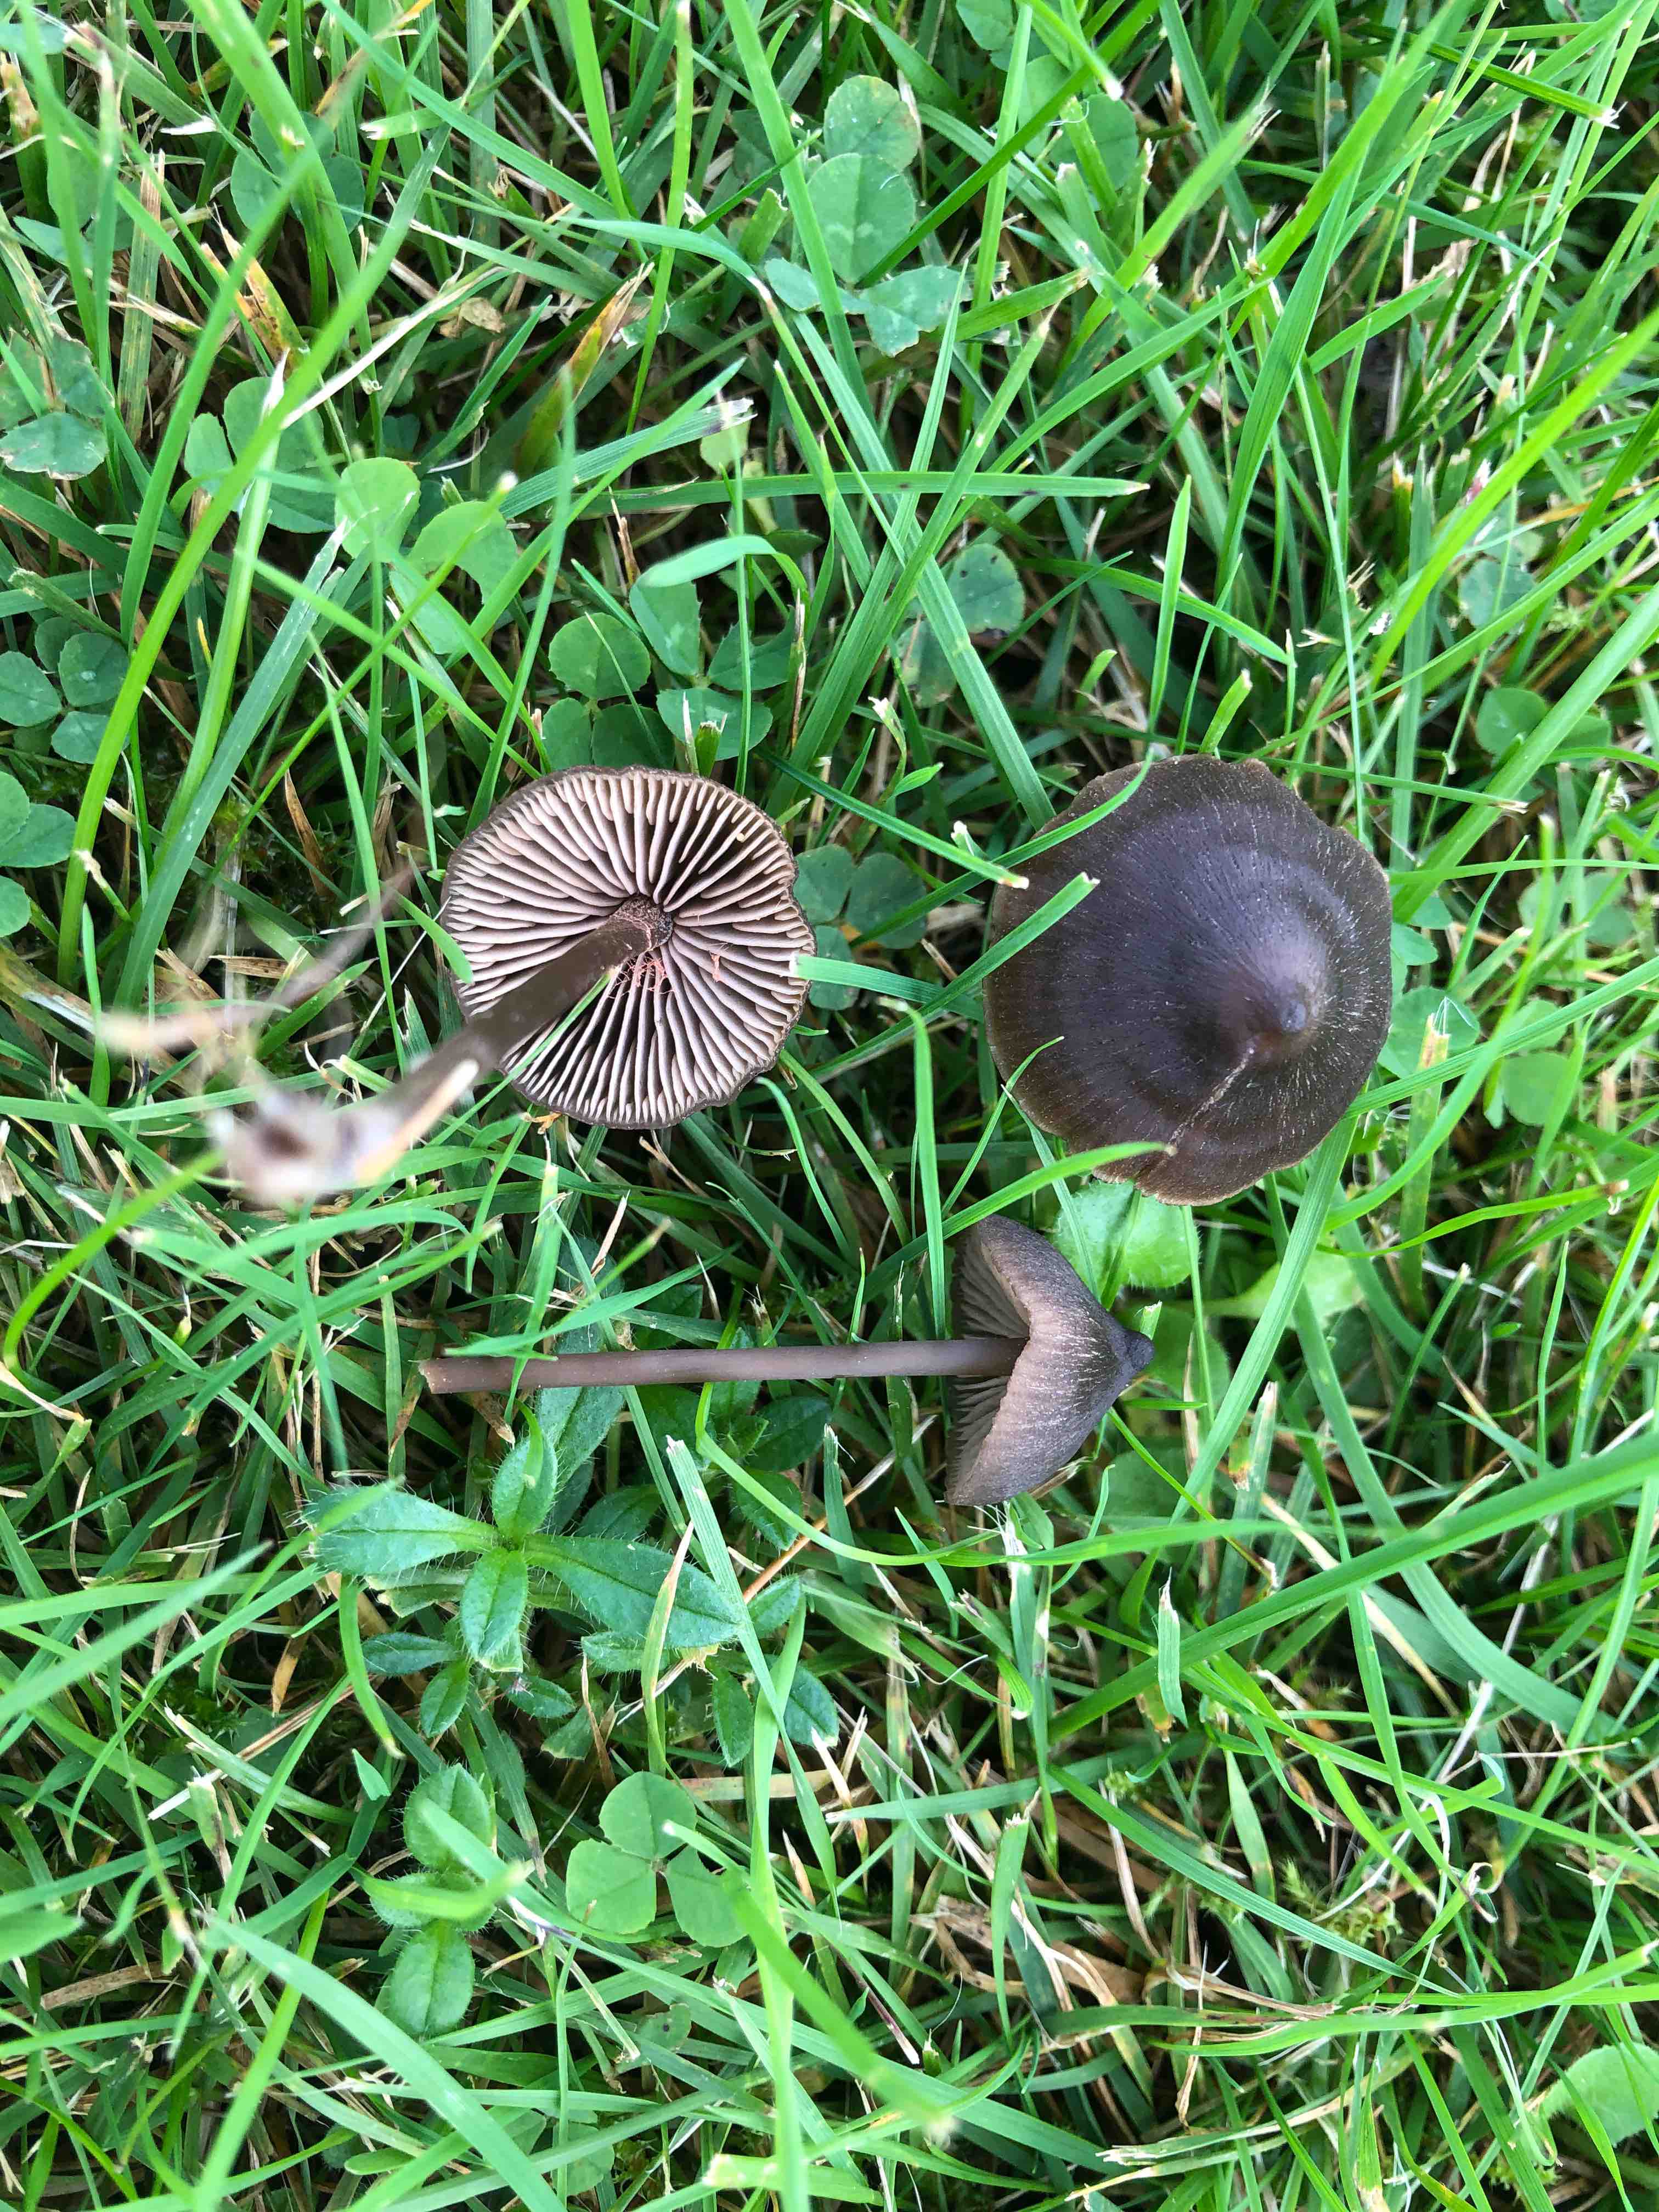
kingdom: Fungi
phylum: Basidiomycota
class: Agaricomycetes
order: Agaricales
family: Entolomataceae
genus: Entoloma
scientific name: Entoloma
